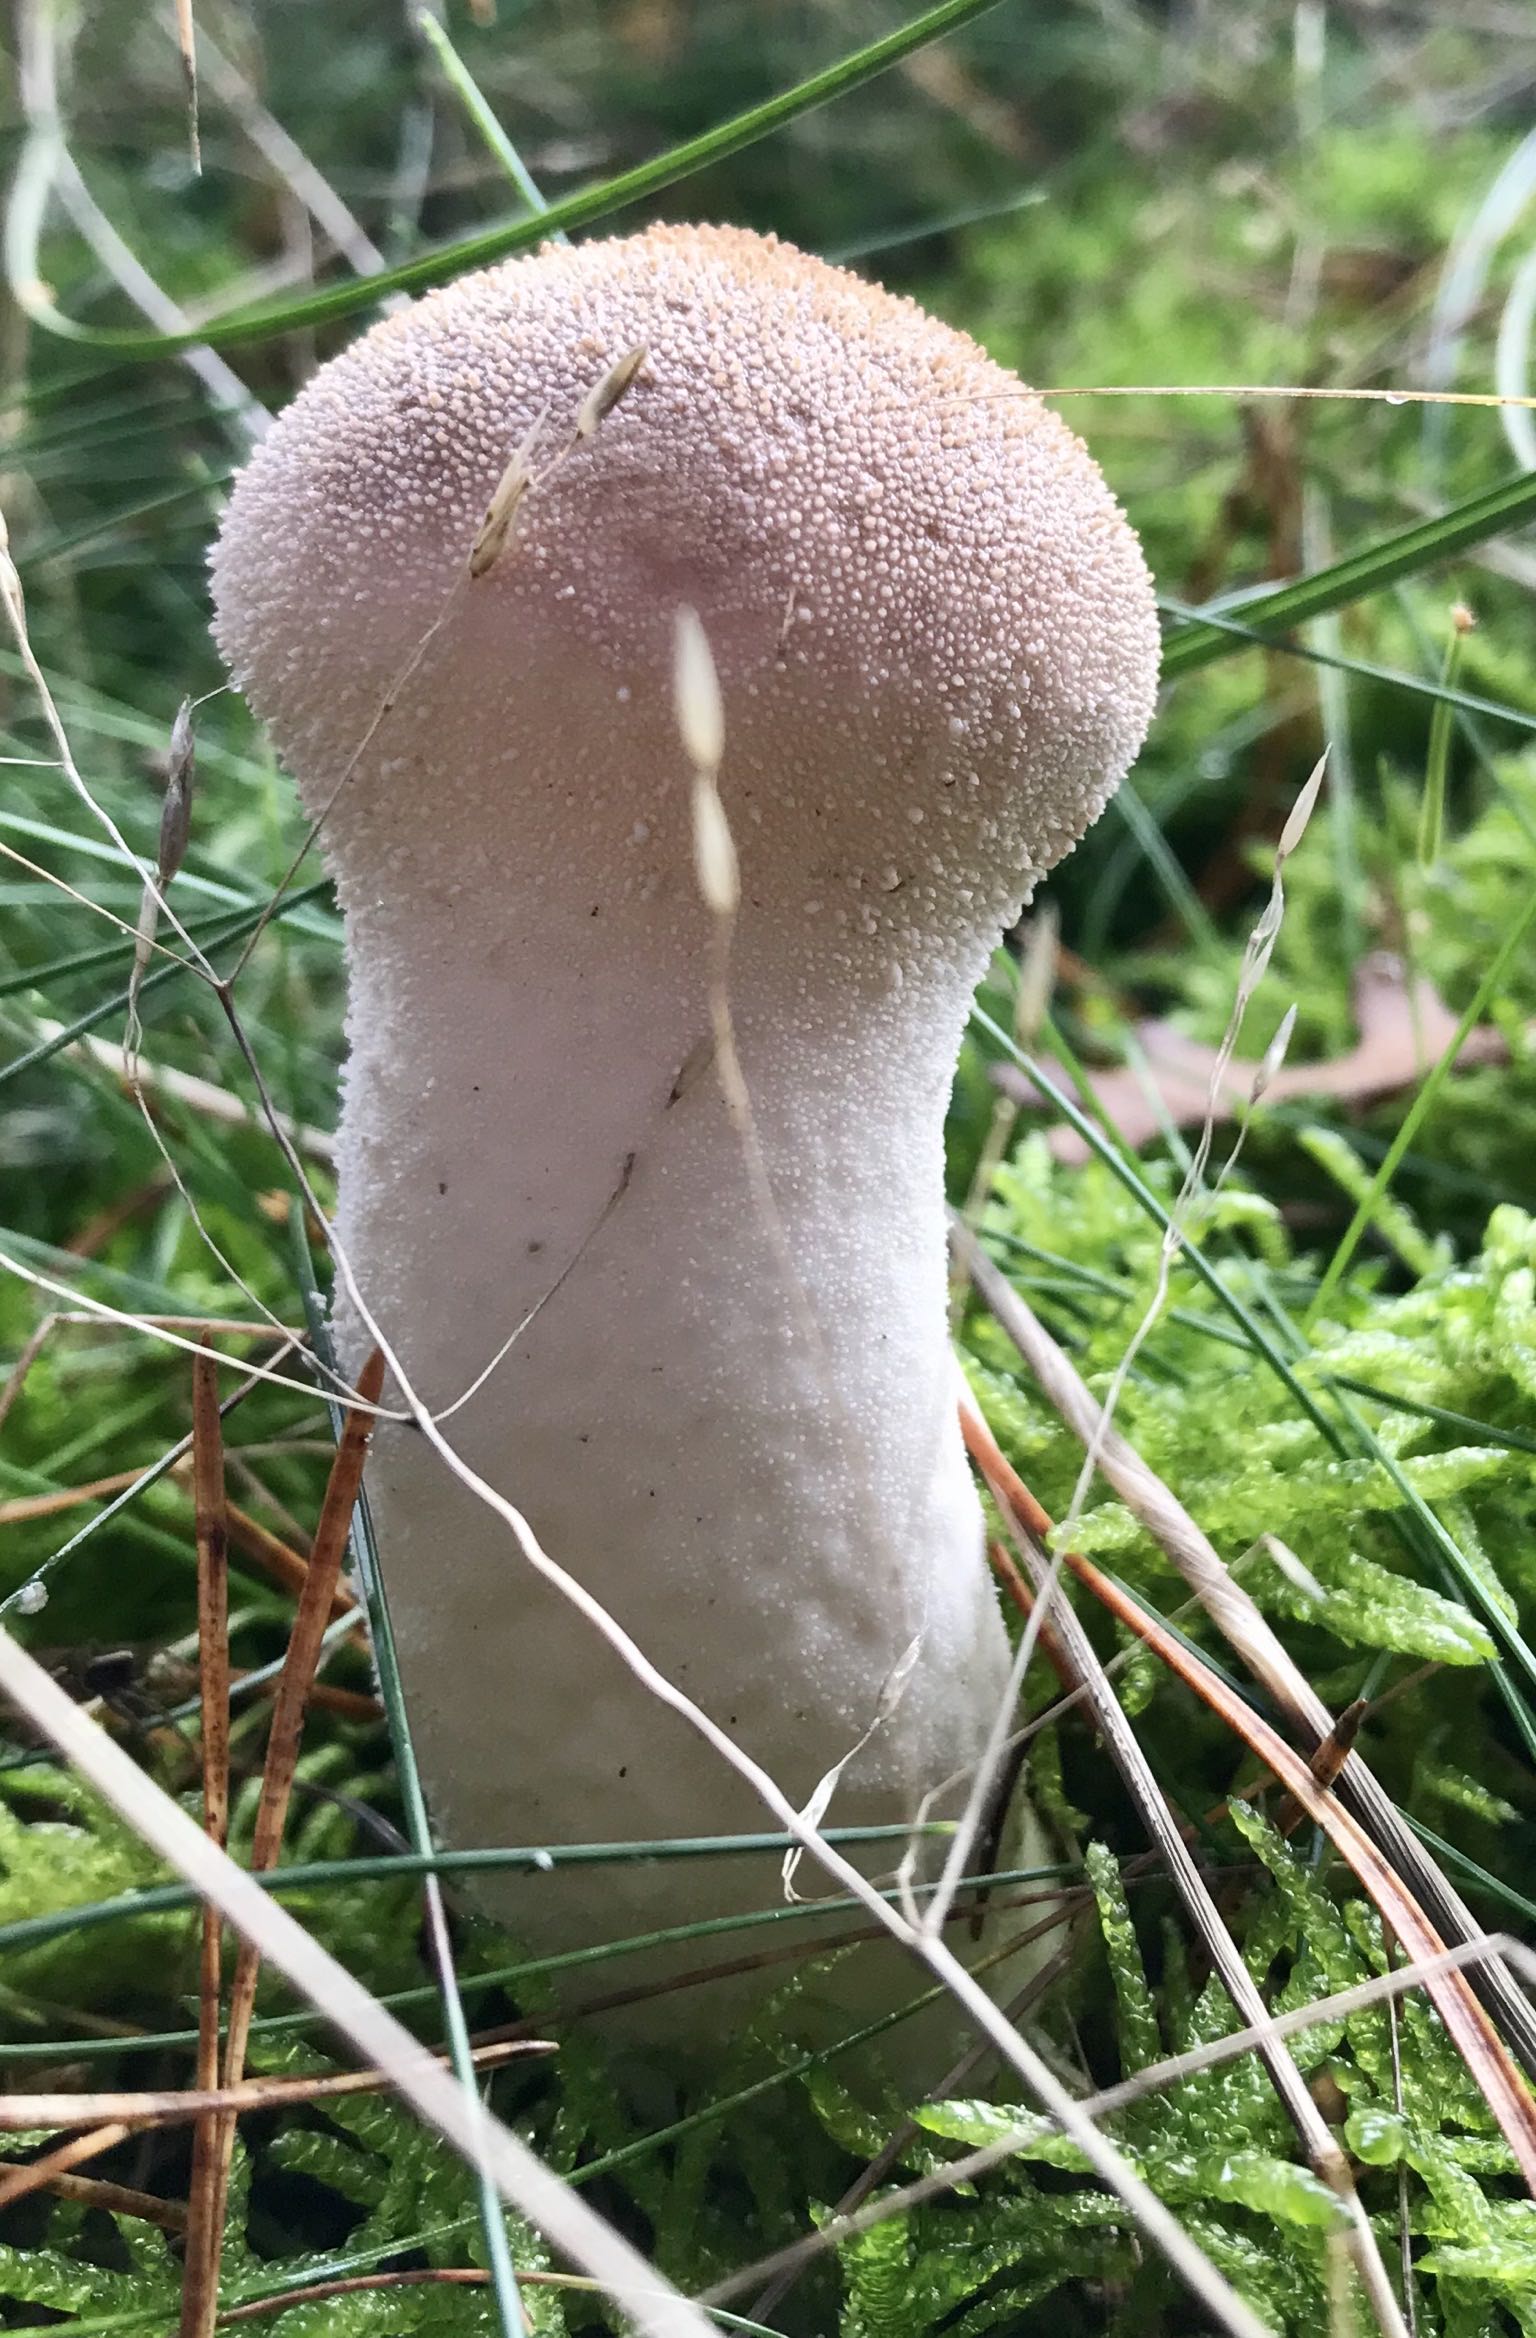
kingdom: Fungi
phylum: Basidiomycota
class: Agaricomycetes
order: Agaricales
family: Agaricaceae
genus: Lycoperdon
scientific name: Lycoperdon
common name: støvbold
